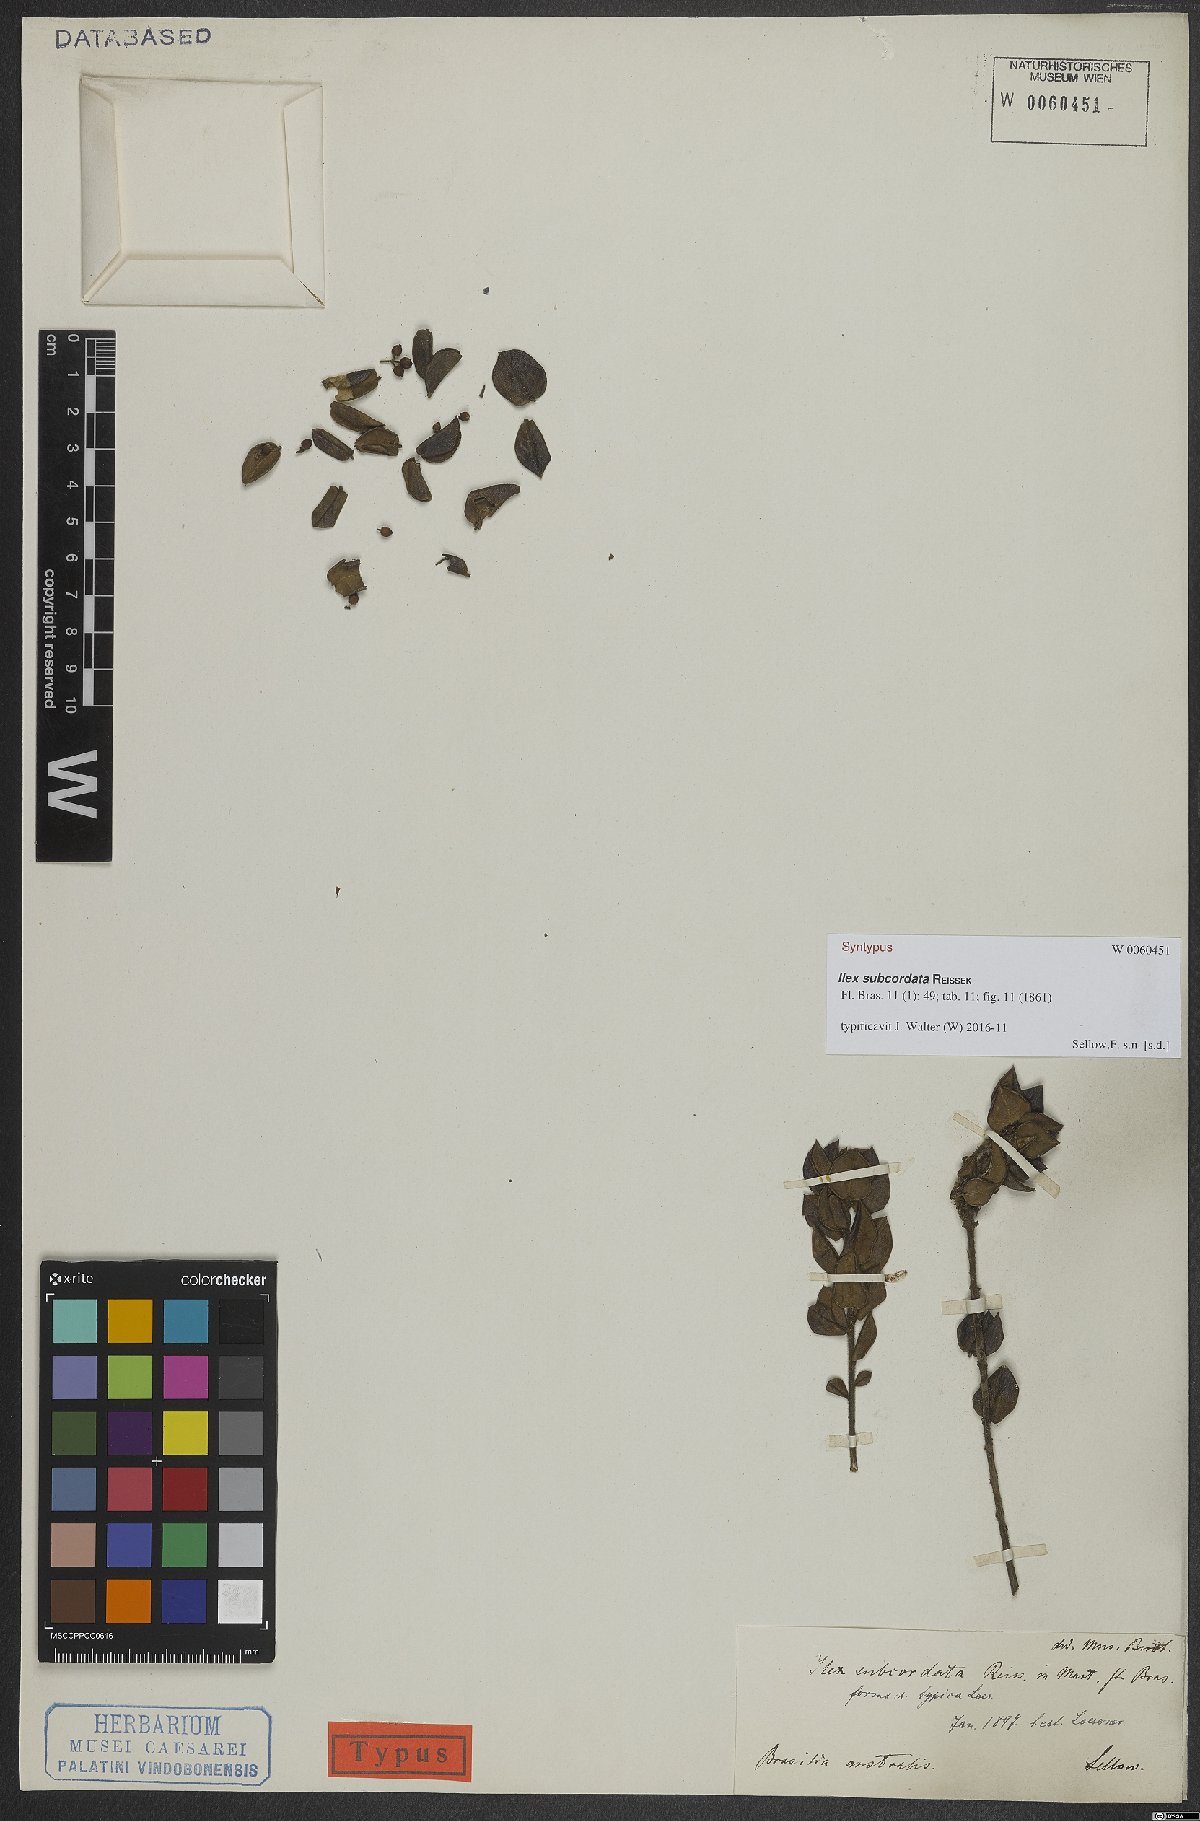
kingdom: Plantae
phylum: Tracheophyta
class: Magnoliopsida
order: Aquifoliales
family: Aquifoliaceae
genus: Ilex
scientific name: Ilex subcordata
